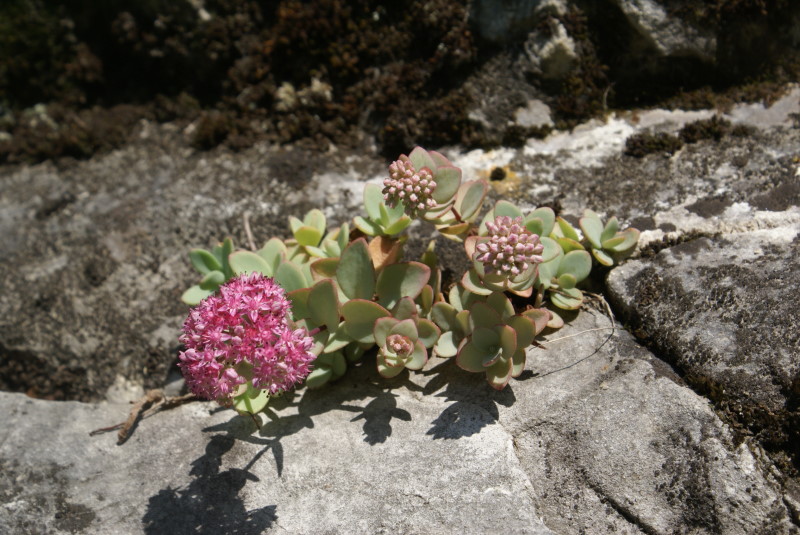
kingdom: Plantae
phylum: Tracheophyta
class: Magnoliopsida
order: Saxifragales
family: Crassulaceae
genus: Hylotelephium
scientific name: Hylotelephium telephium
